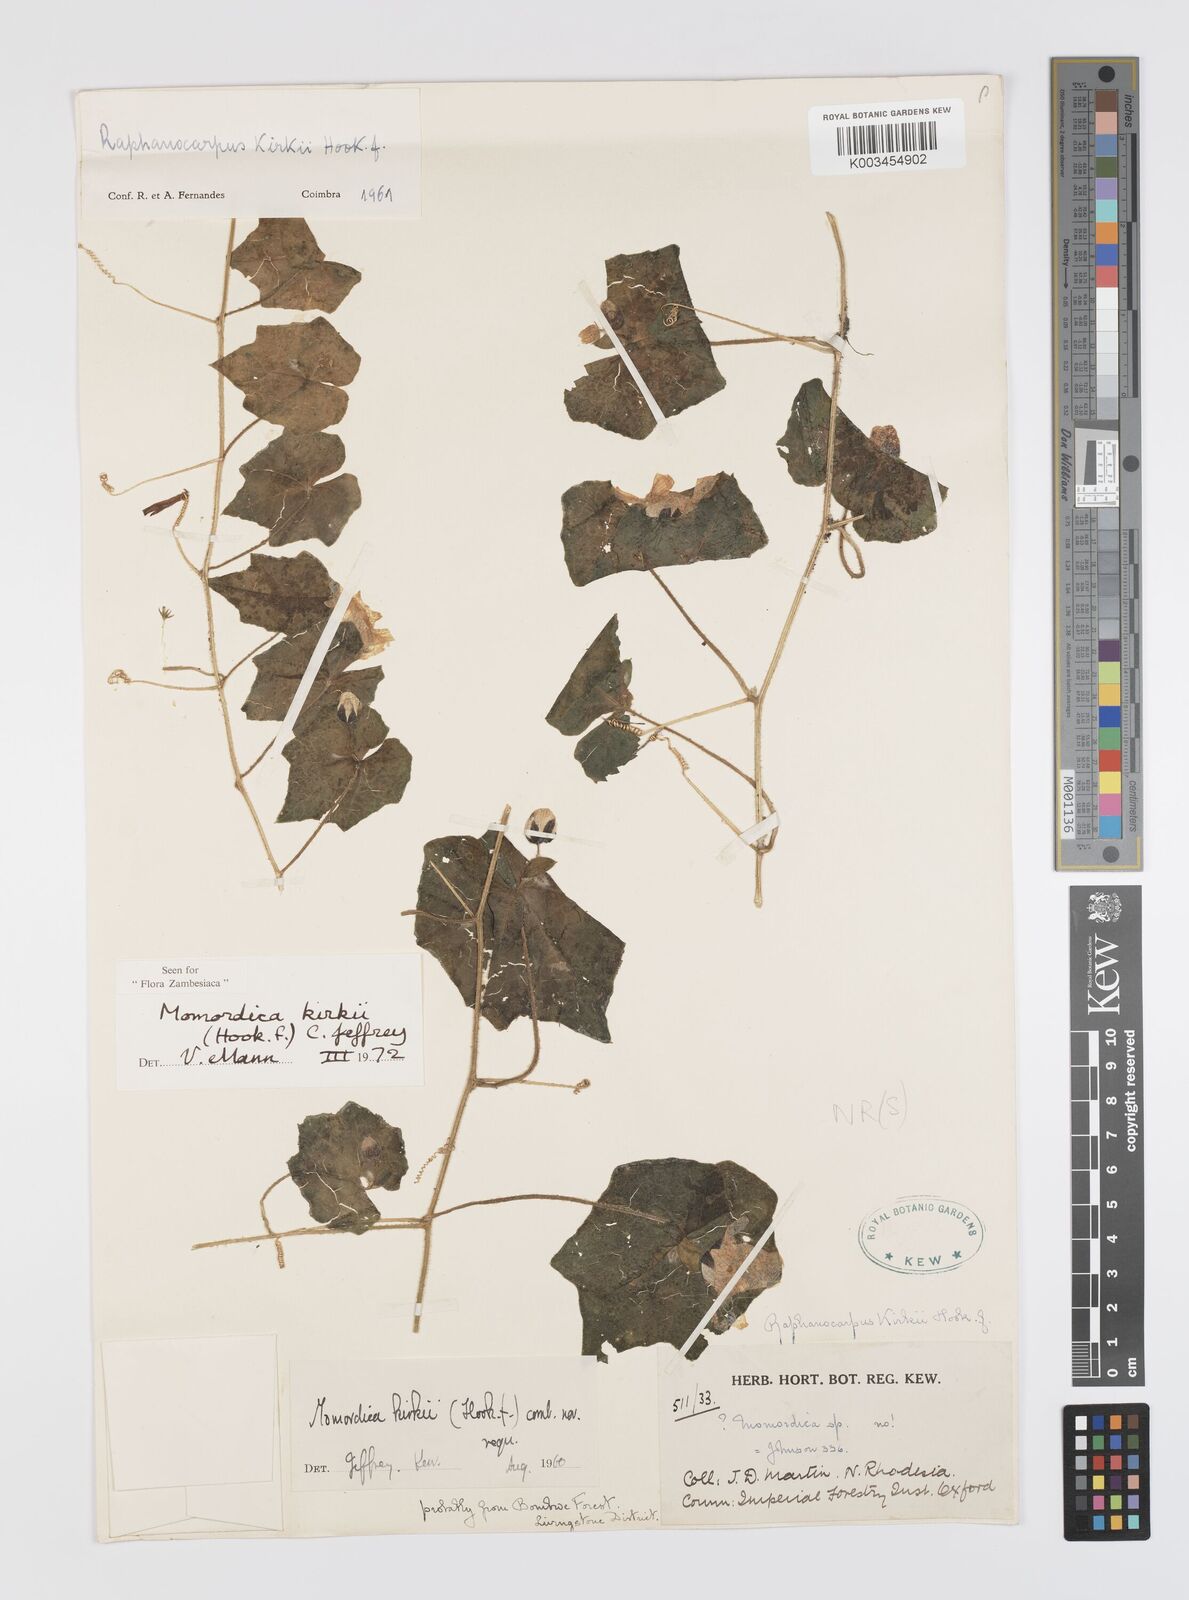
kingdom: Plantae
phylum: Tracheophyta
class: Magnoliopsida
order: Cucurbitales
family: Cucurbitaceae
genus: Momordica
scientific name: Momordica kirkii
